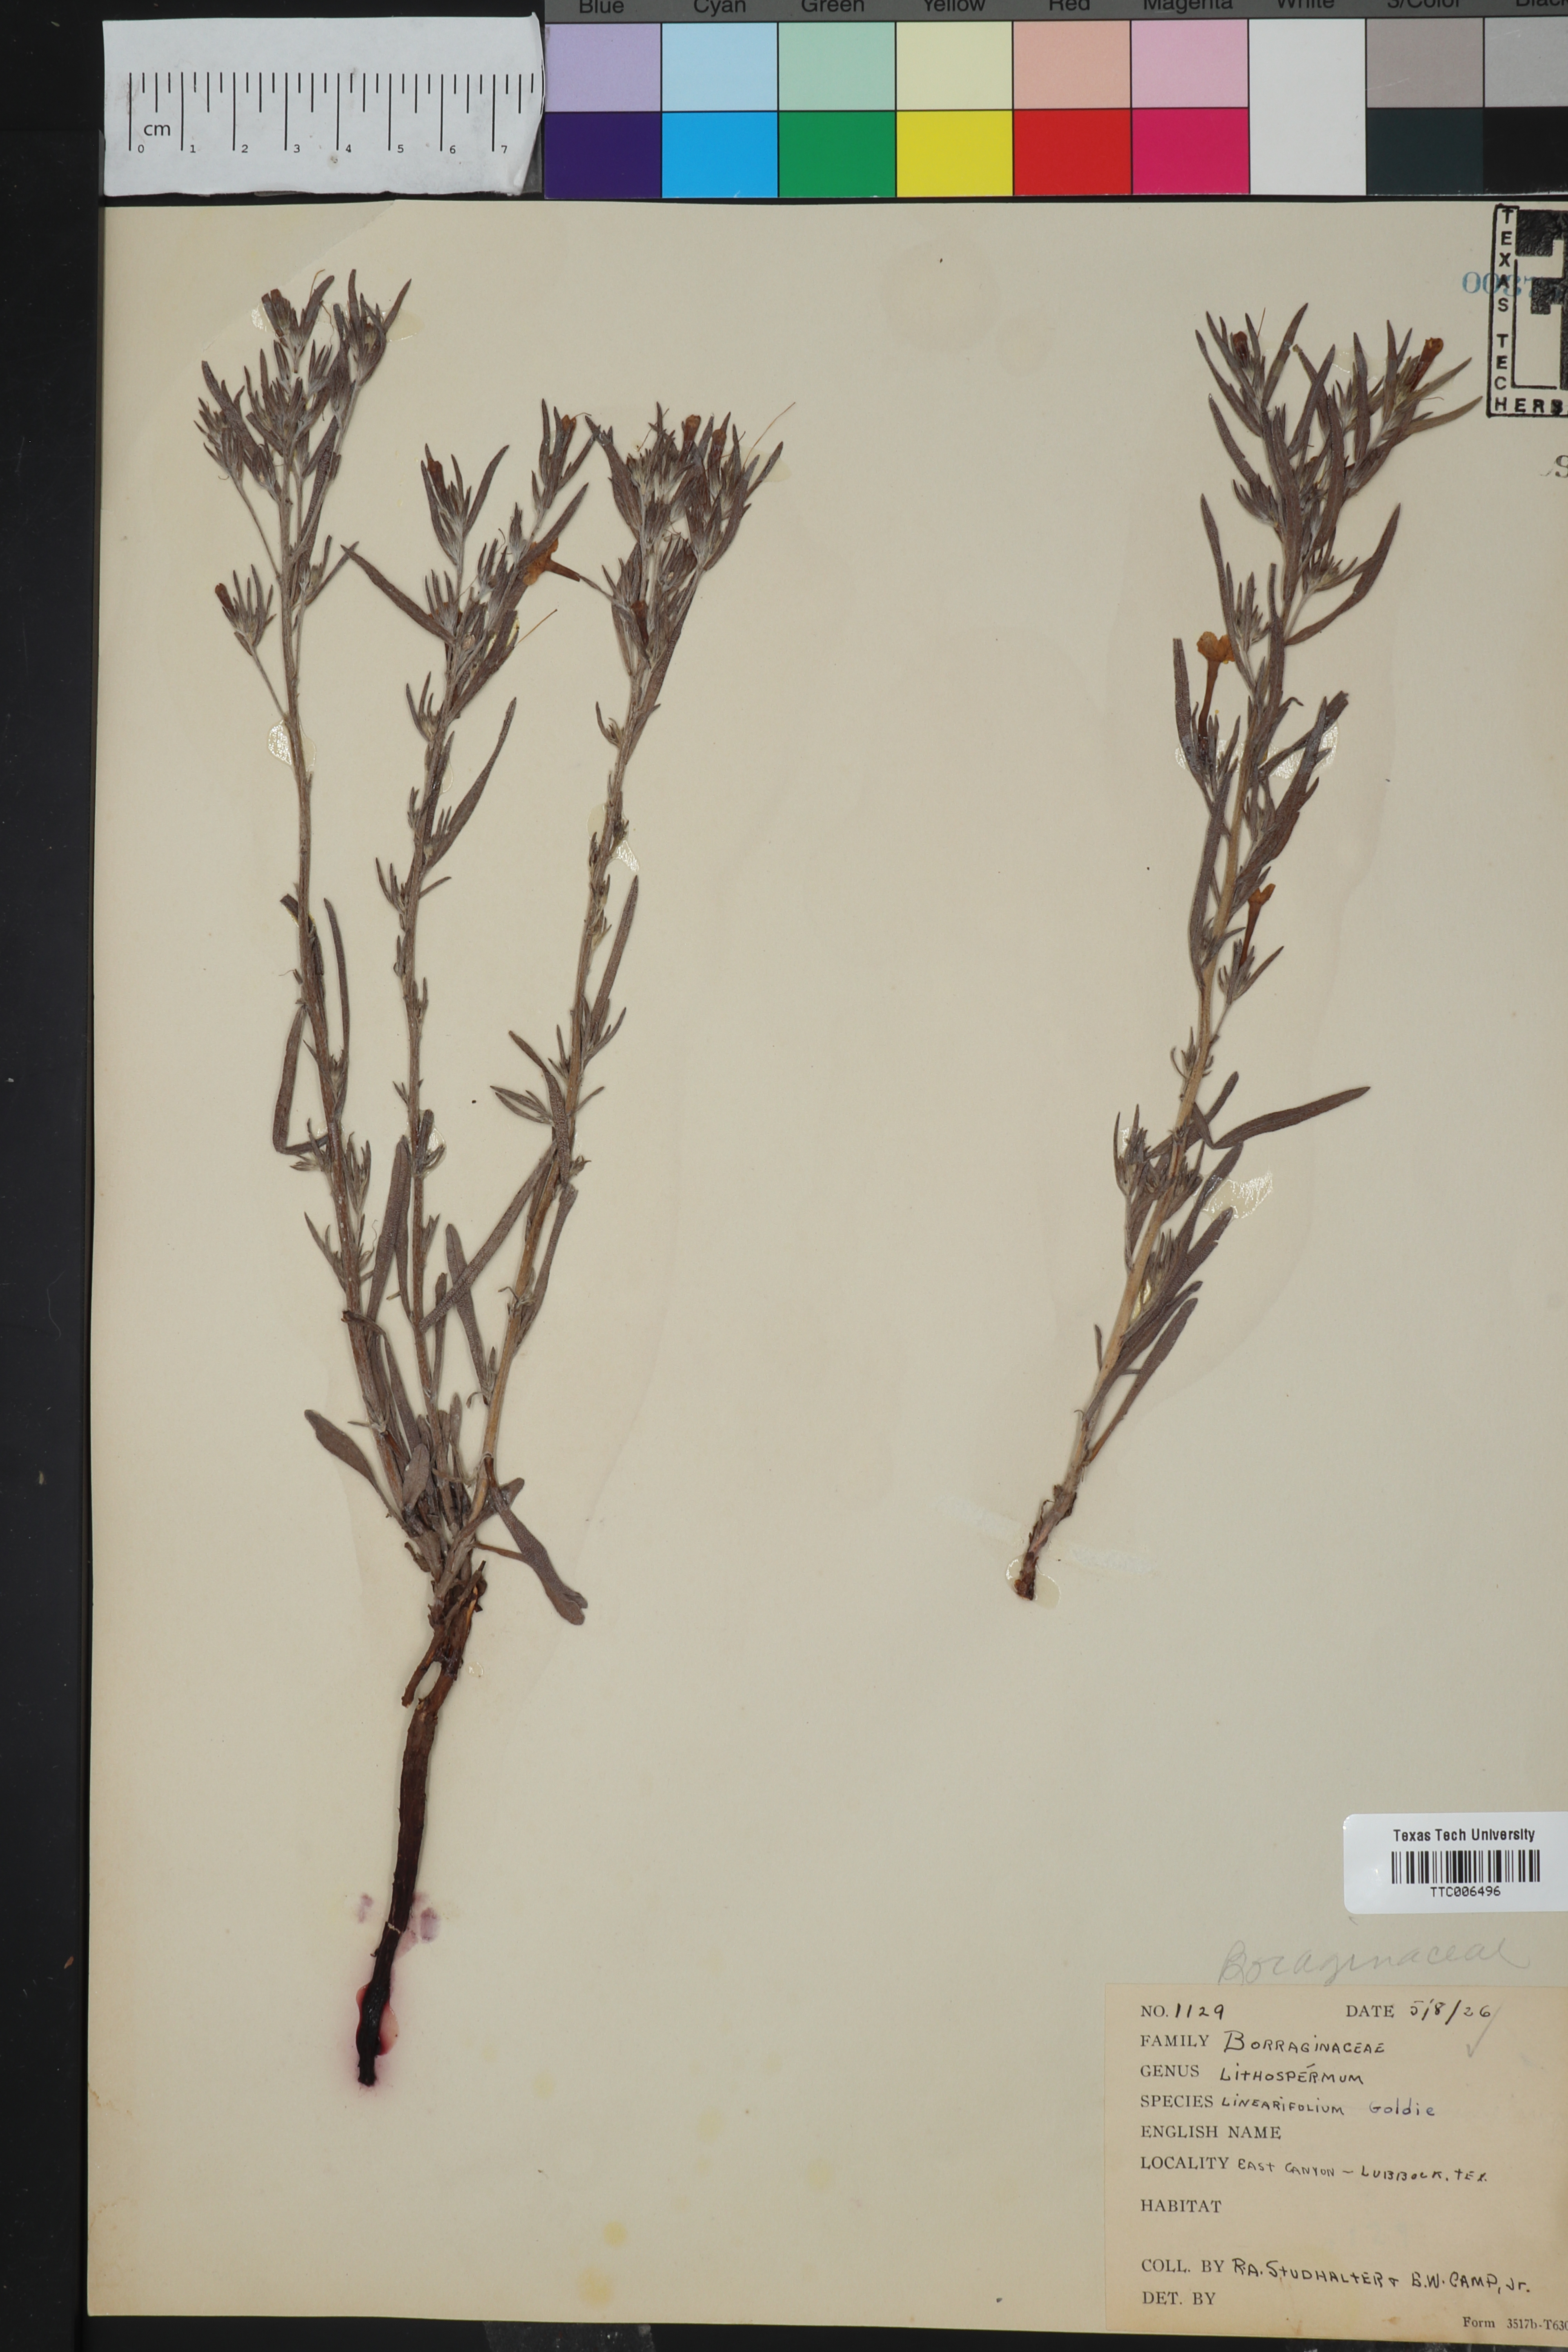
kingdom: Plantae
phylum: Tracheophyta
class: Magnoliopsida
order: Boraginales
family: Boraginaceae
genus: Lithospermum
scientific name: Lithospermum incisum
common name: Fringed gromwell
